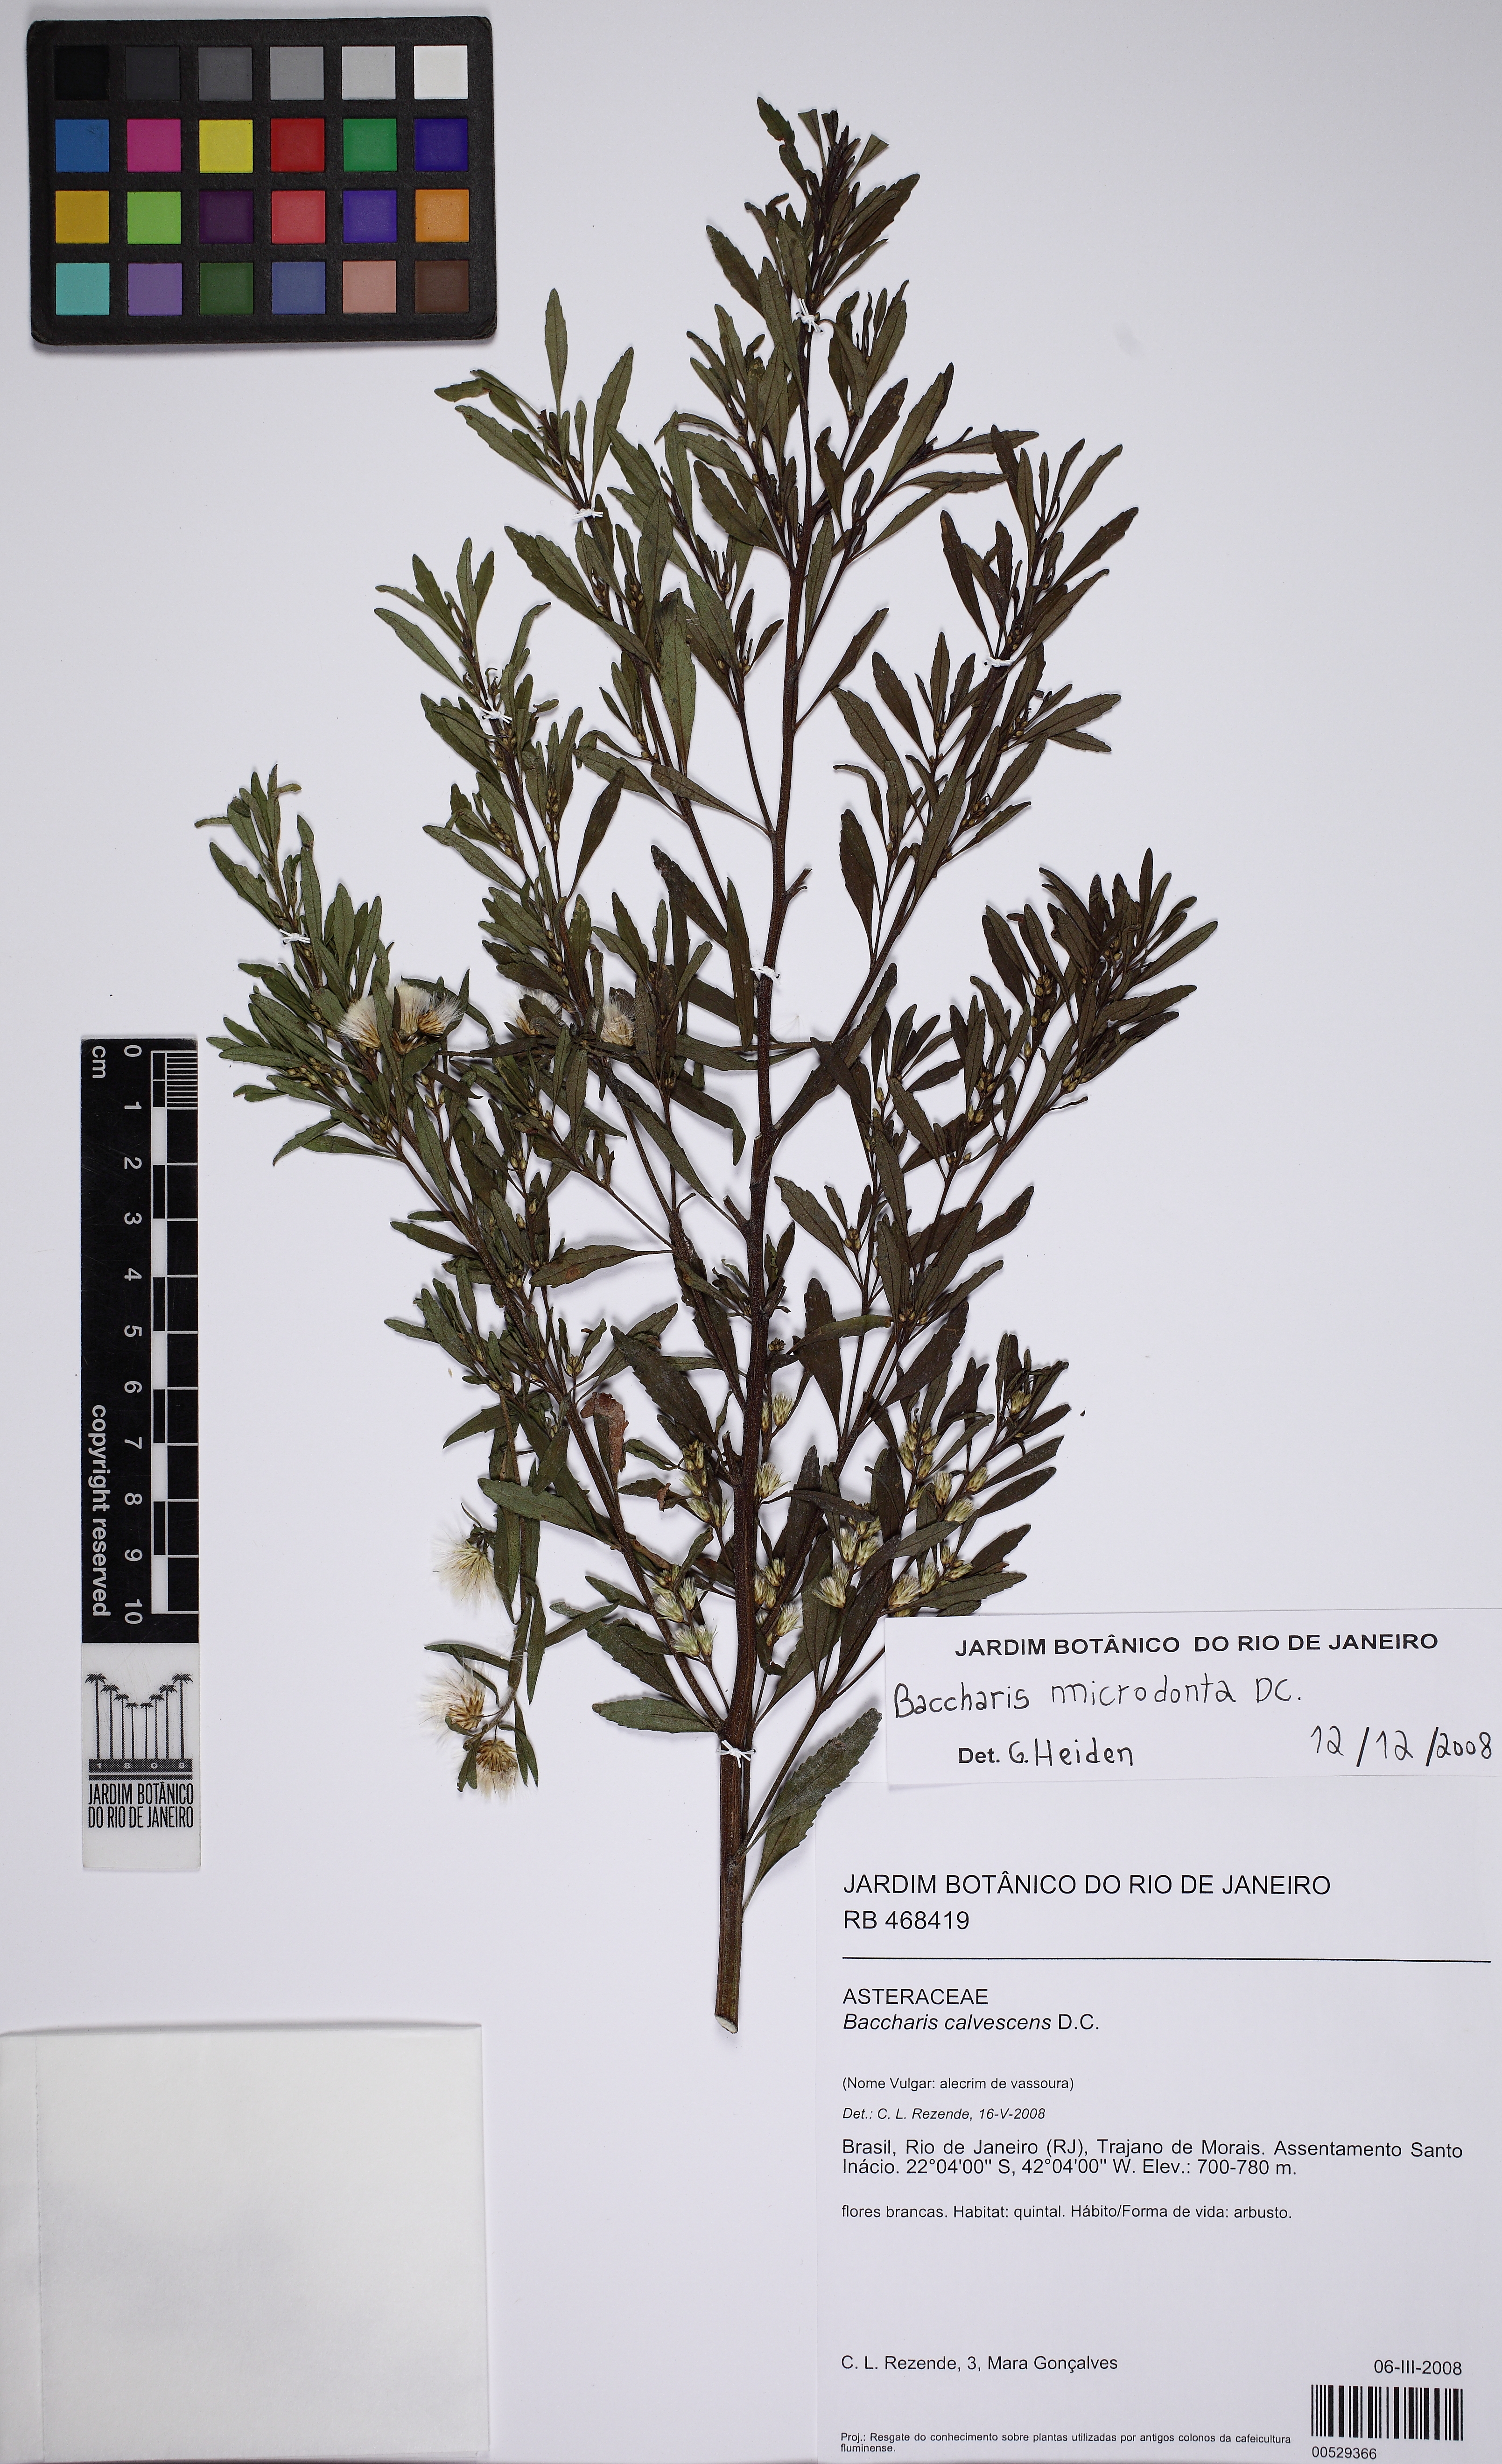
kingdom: Plantae
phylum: Tracheophyta
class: Magnoliopsida
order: Asterales
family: Asteraceae
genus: Baccharis
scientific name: Baccharis microdonta
